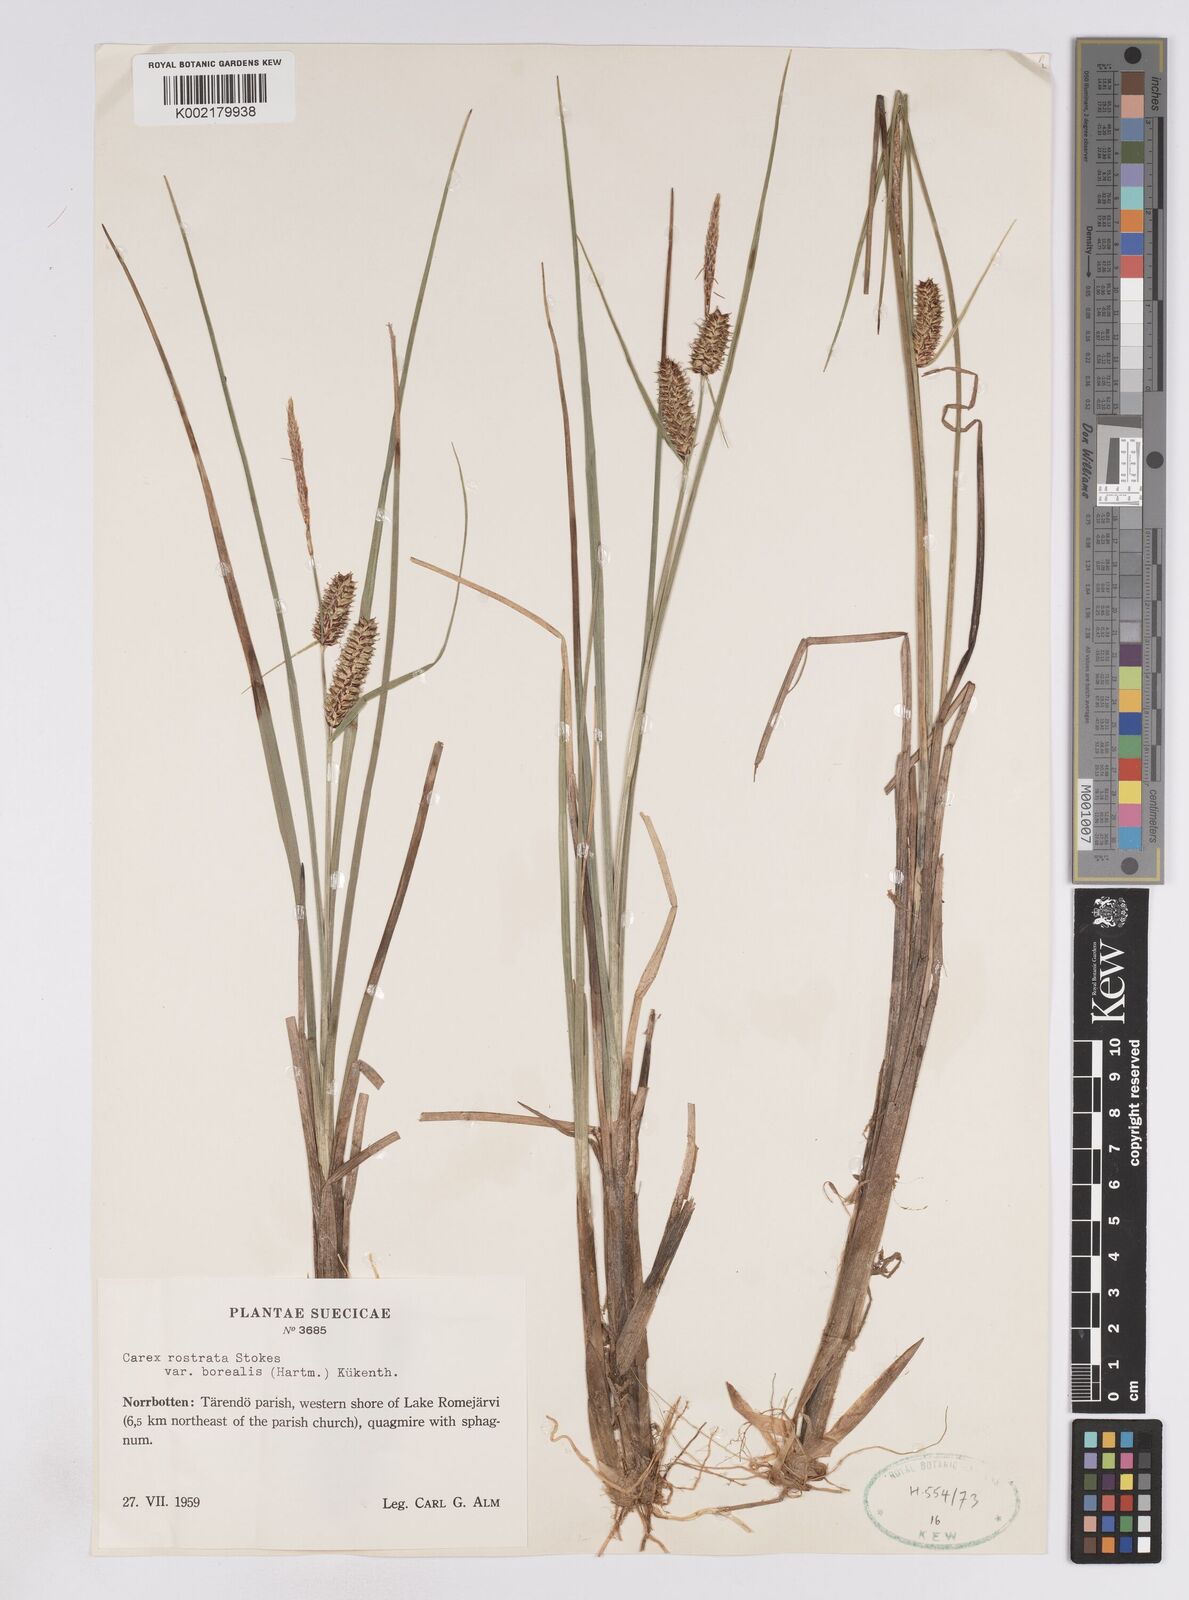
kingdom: Plantae
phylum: Tracheophyta
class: Liliopsida
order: Poales
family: Cyperaceae
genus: Carex
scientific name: Carex saamica
